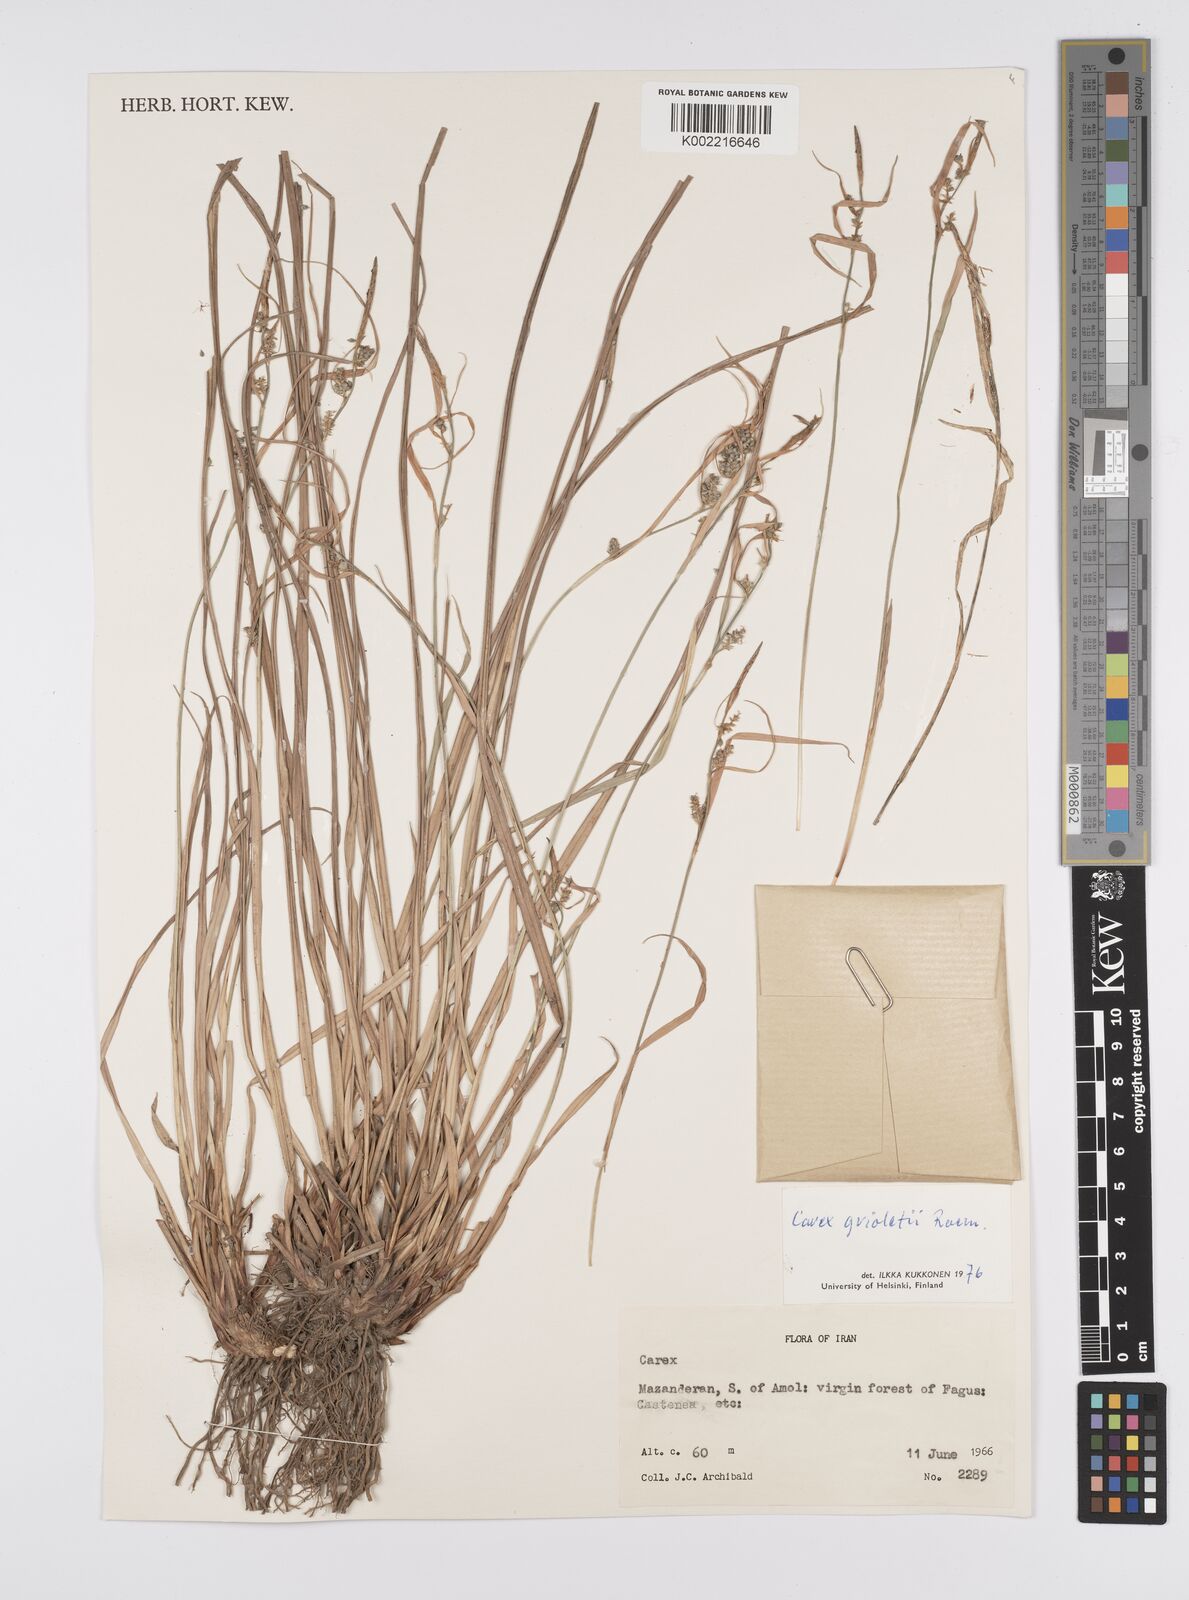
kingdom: Plantae
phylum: Tracheophyta
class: Liliopsida
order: Poales
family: Cyperaceae
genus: Carex
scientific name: Carex grioletii
